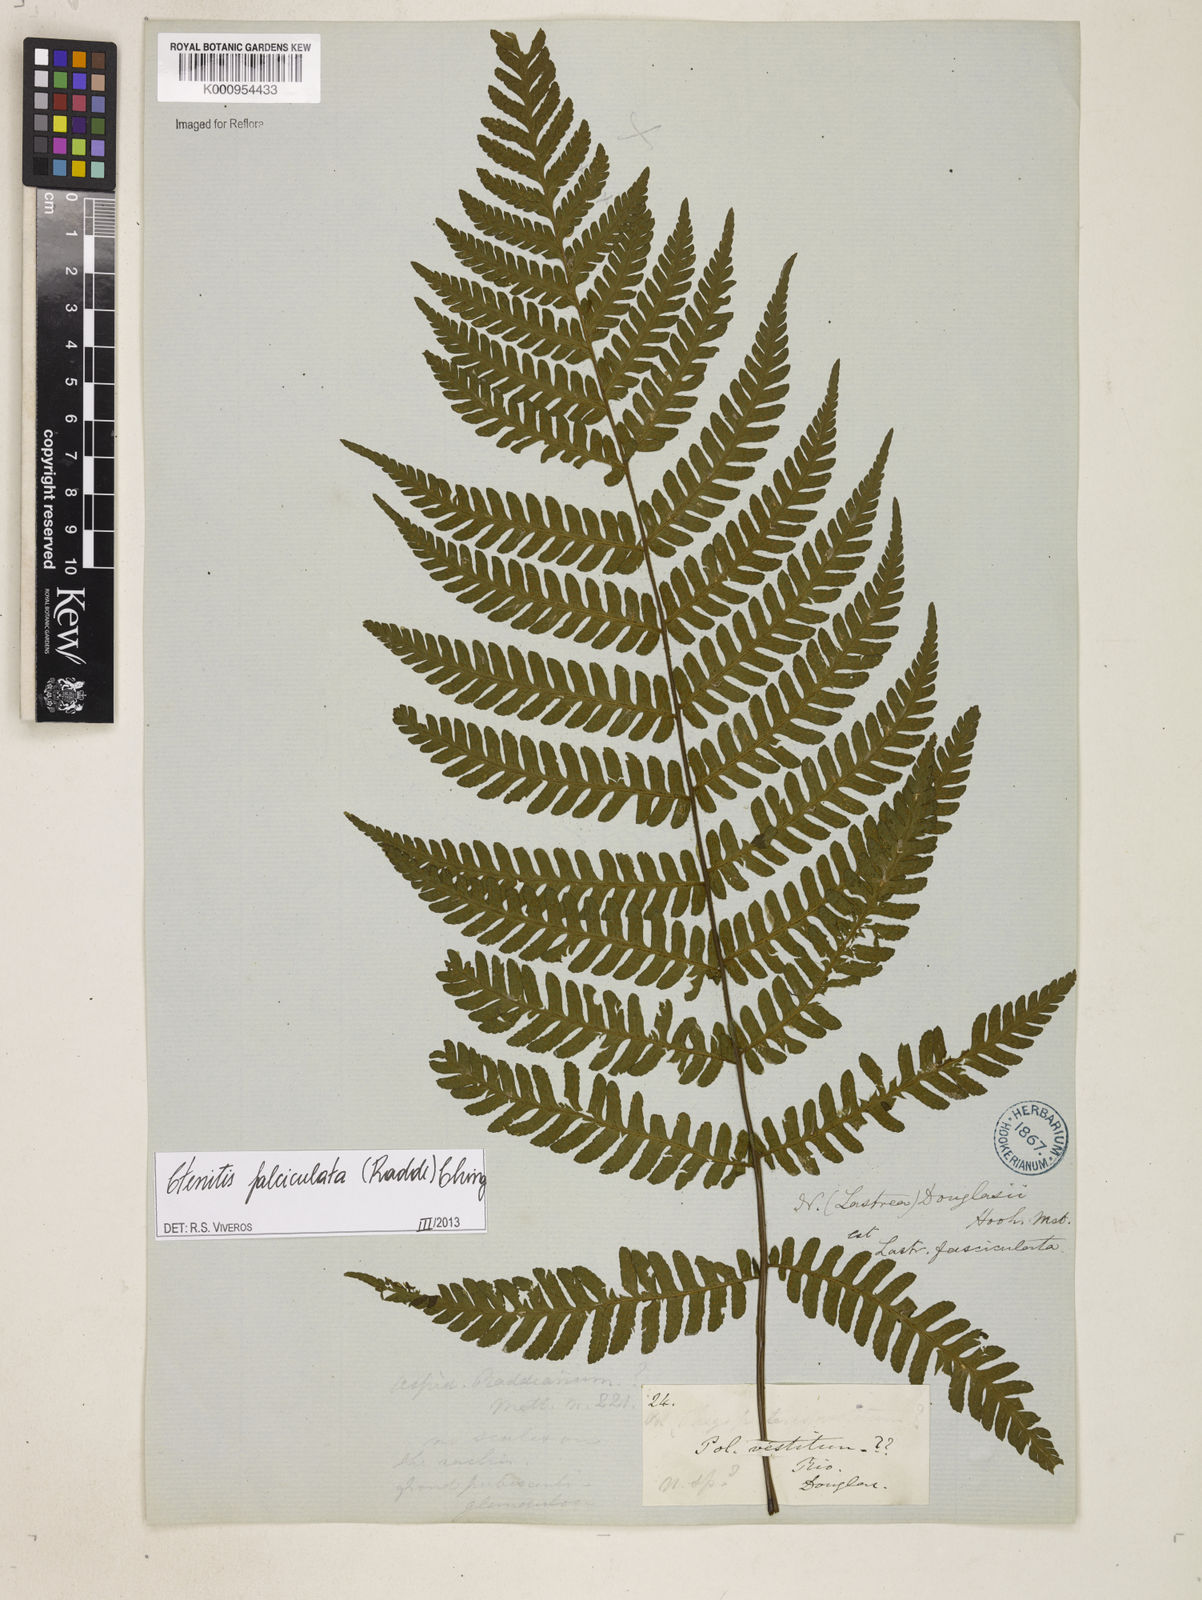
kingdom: Plantae
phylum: Tracheophyta
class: Polypodiopsida
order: Polypodiales
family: Dryopteridaceae
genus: Ctenitis
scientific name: Ctenitis falciculata
